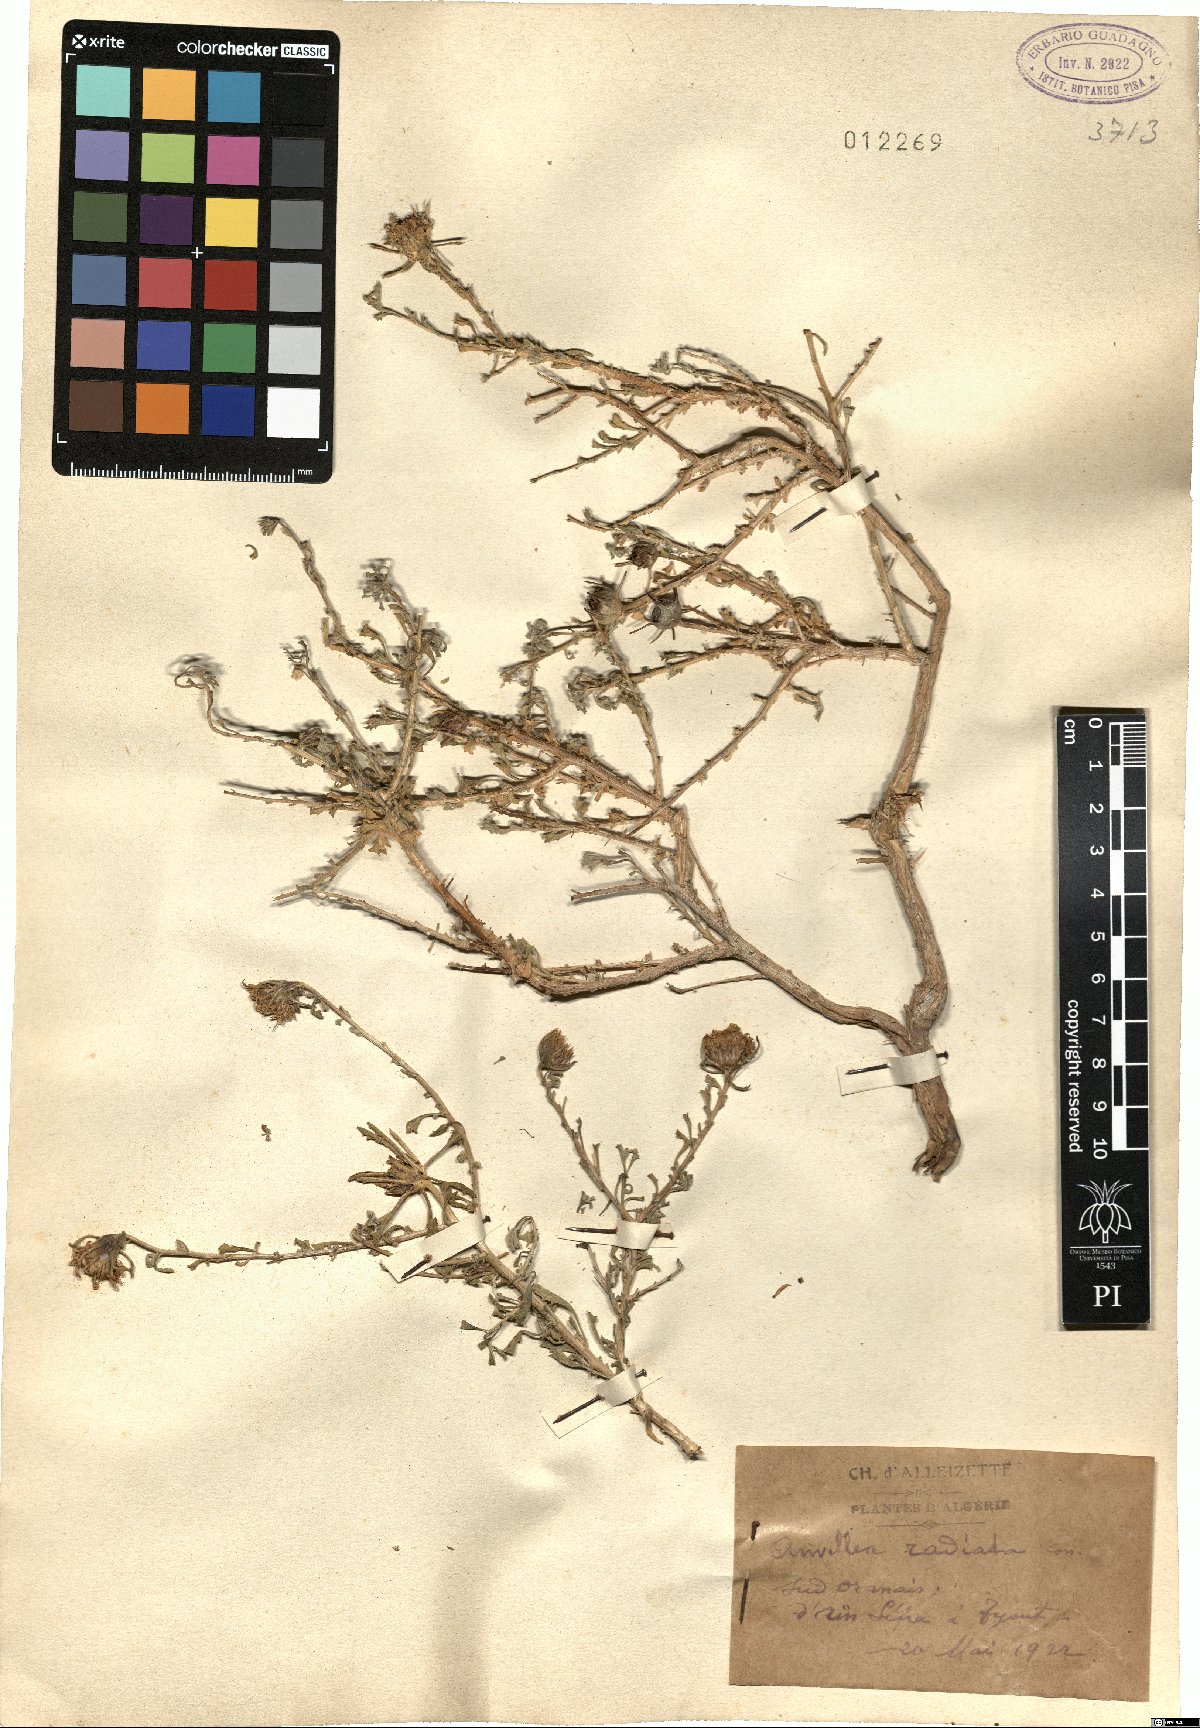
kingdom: Plantae
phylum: Tracheophyta
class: Magnoliopsida
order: Asterales
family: Asteraceae
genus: Anvillea
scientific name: Anvillea garcinii
